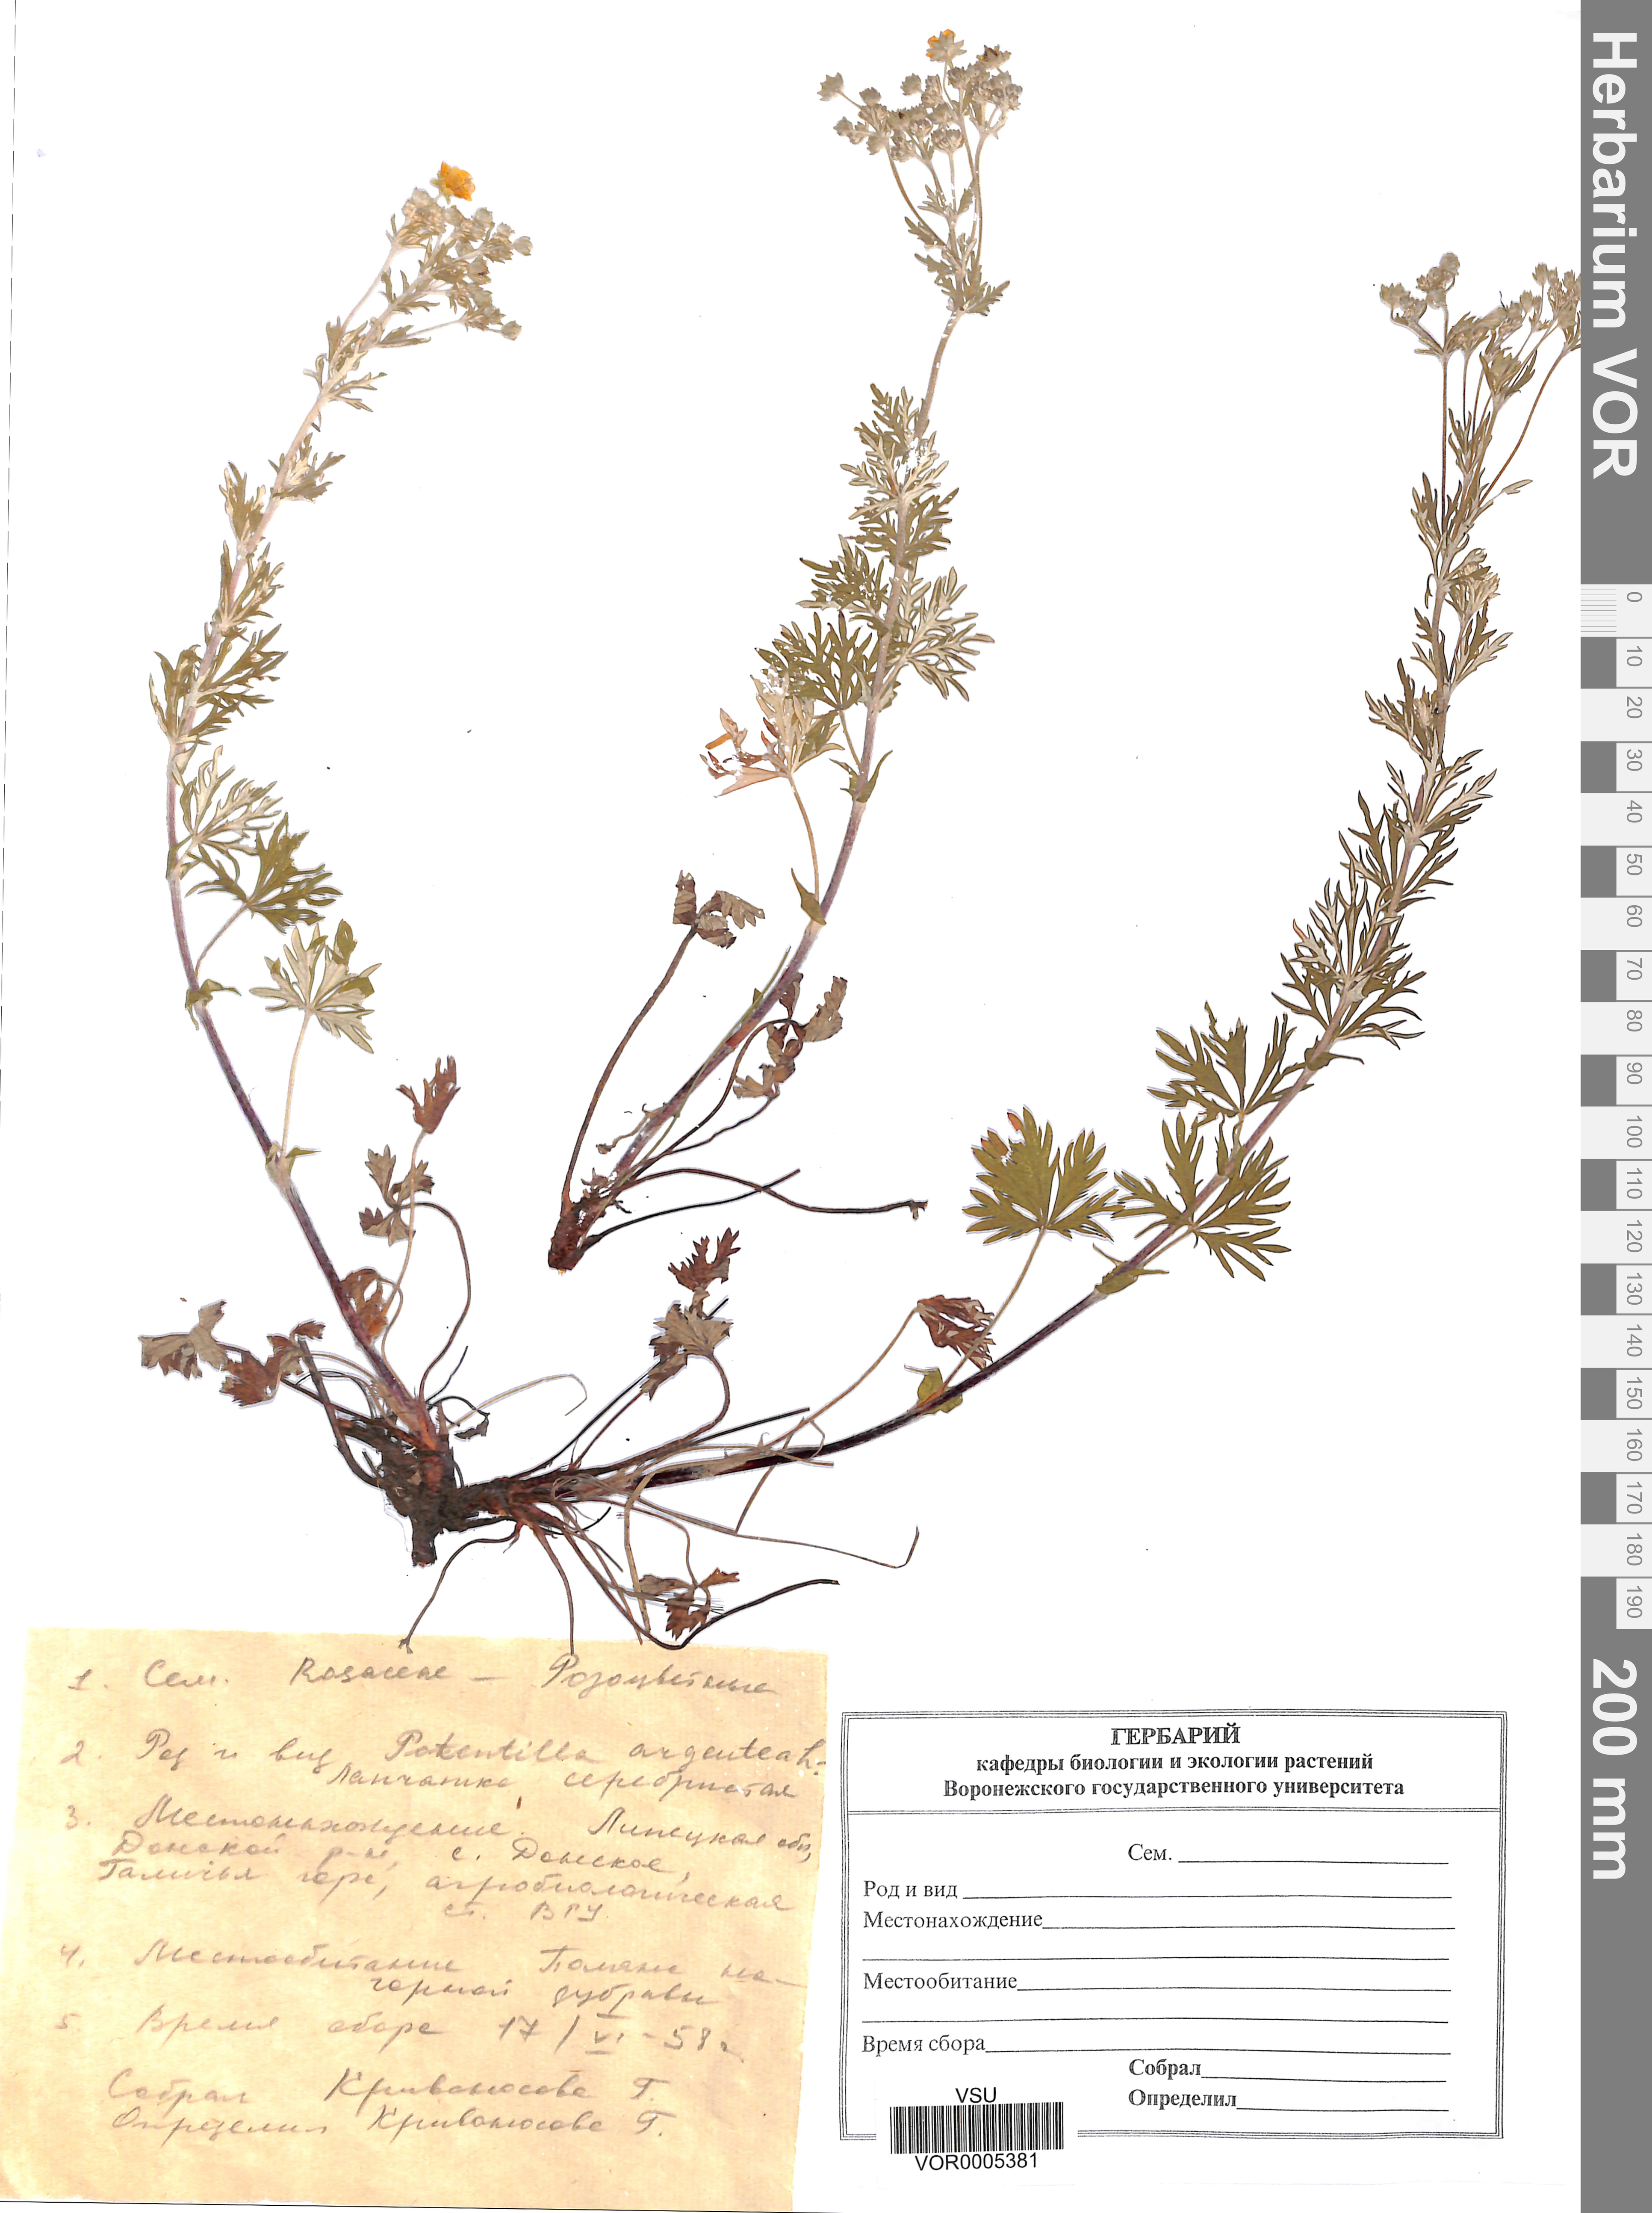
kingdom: Plantae
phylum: Tracheophyta
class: Magnoliopsida
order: Rosales
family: Rosaceae
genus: Potentilla
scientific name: Potentilla argentea
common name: Hoary cinquefoil
